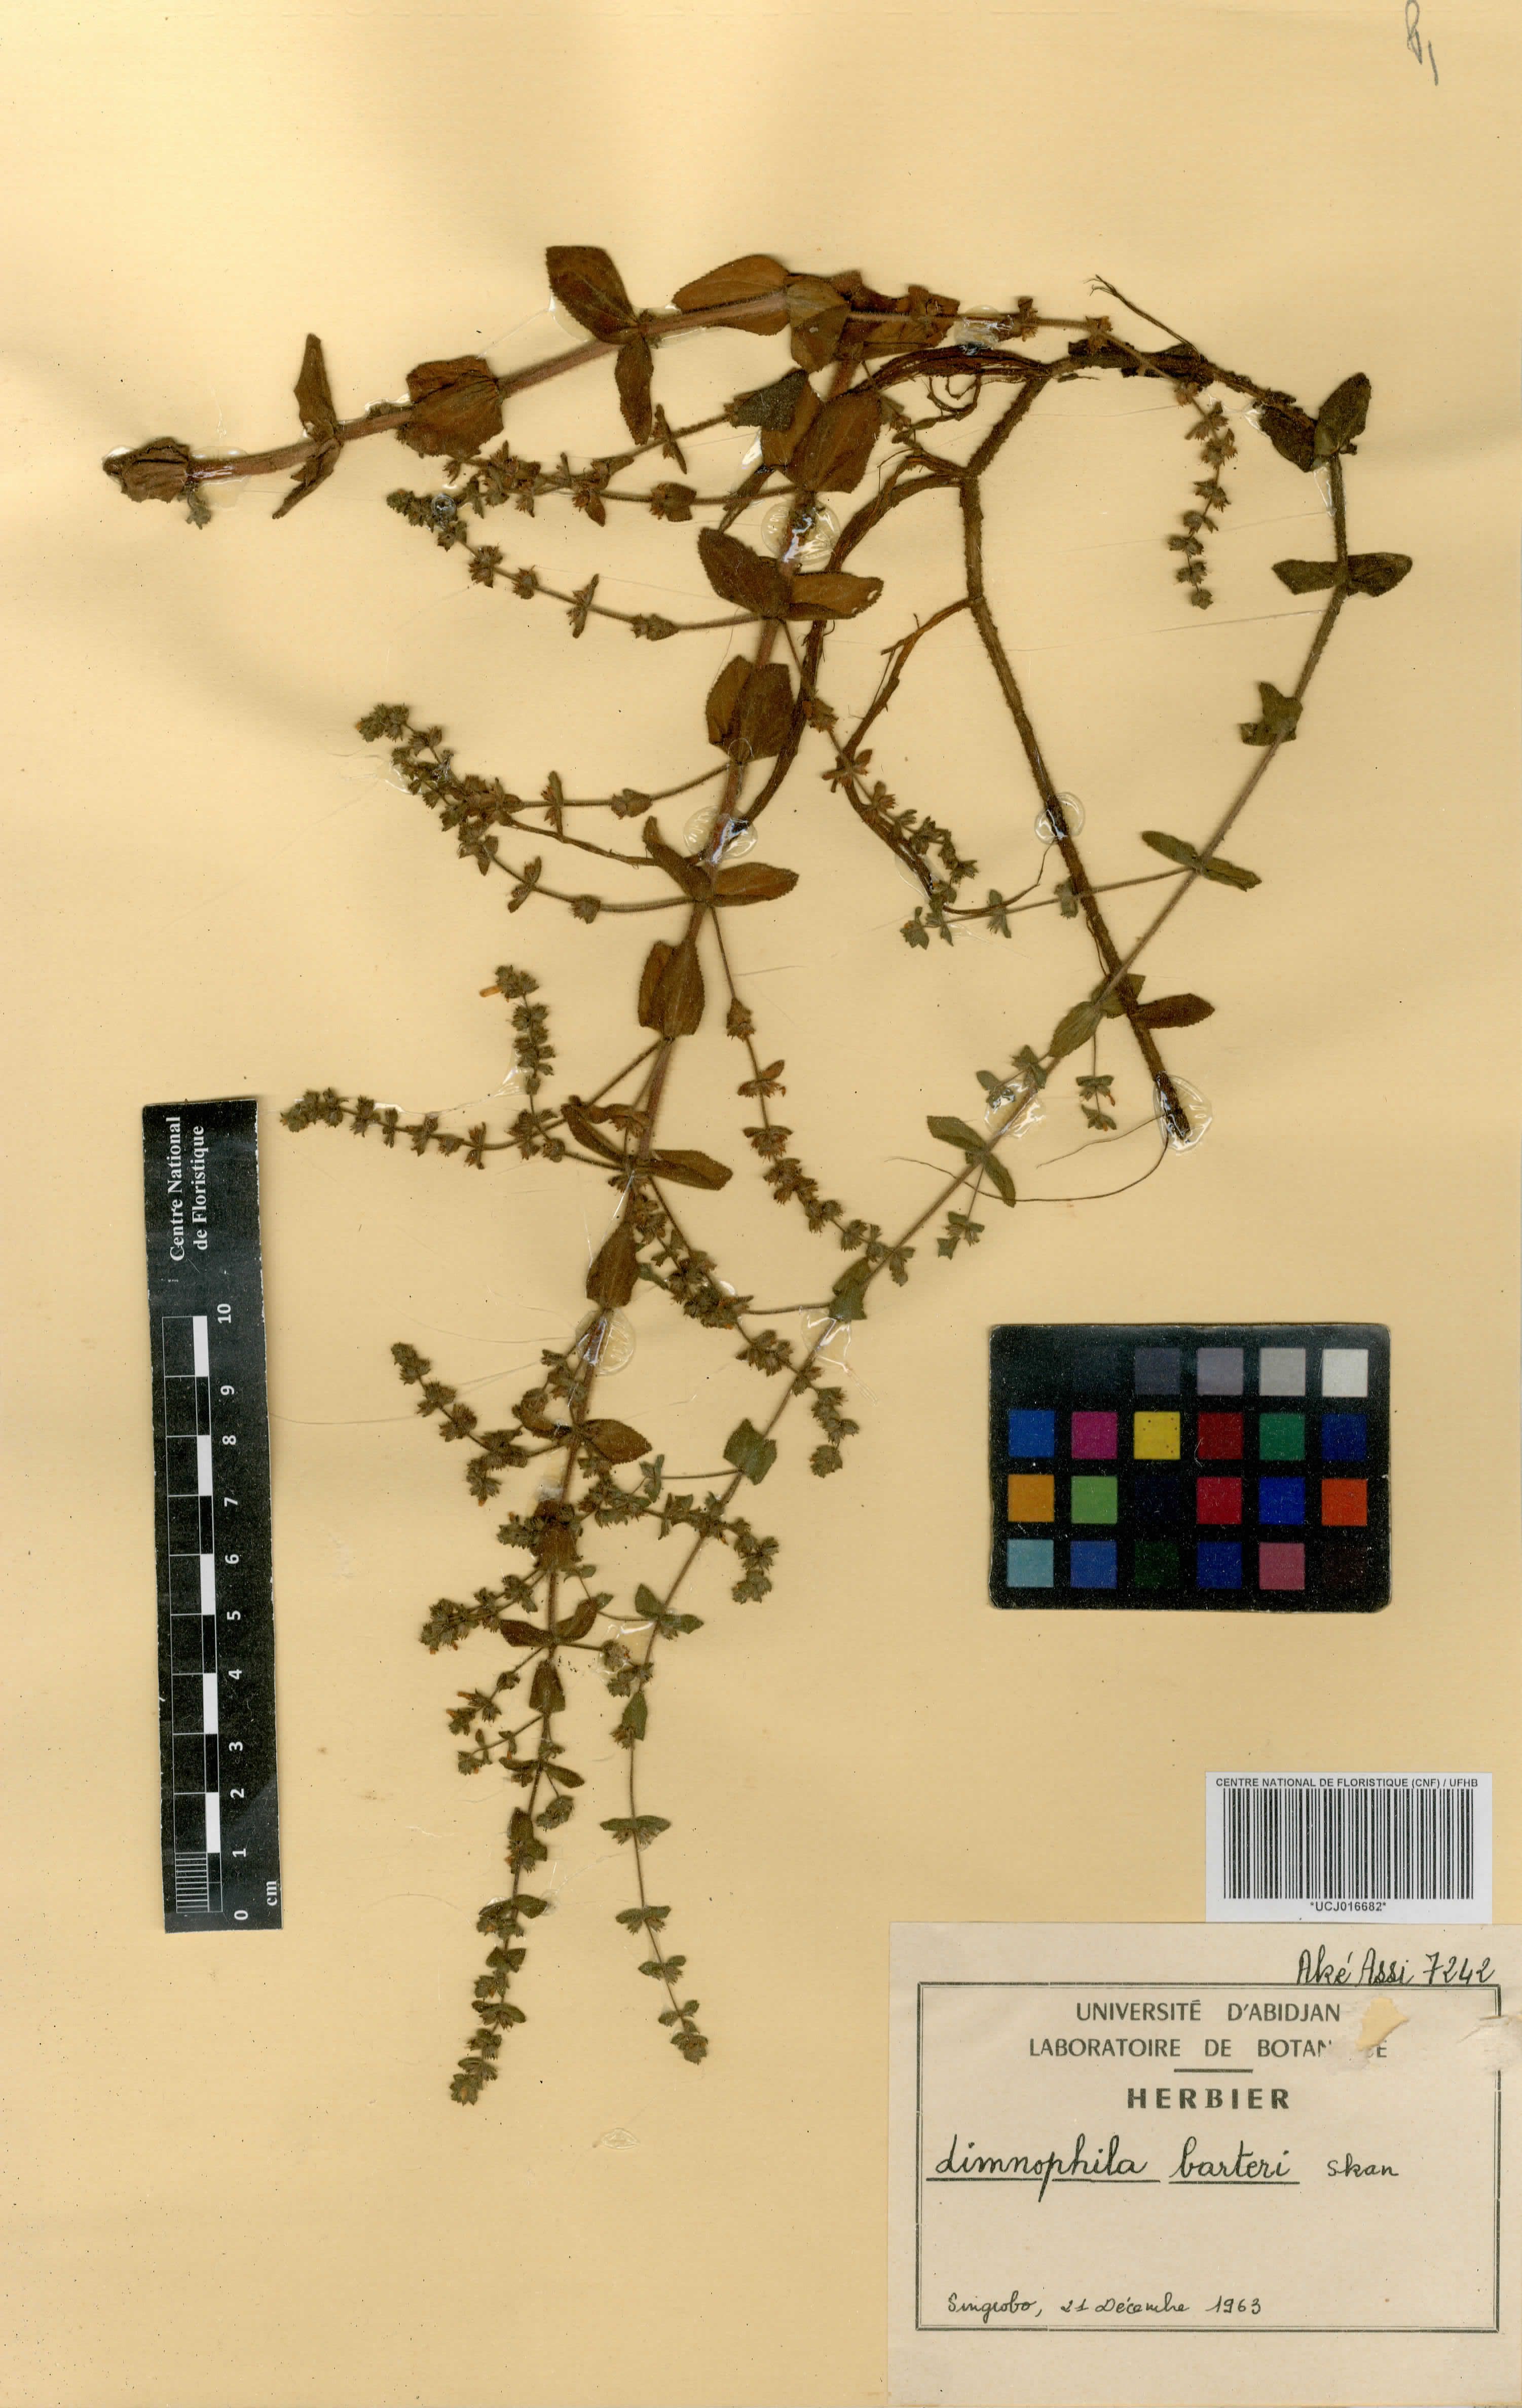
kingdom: Plantae
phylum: Tracheophyta
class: Magnoliopsida
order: Lamiales
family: Plantaginaceae
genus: Limnophila
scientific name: Limnophila barteri
